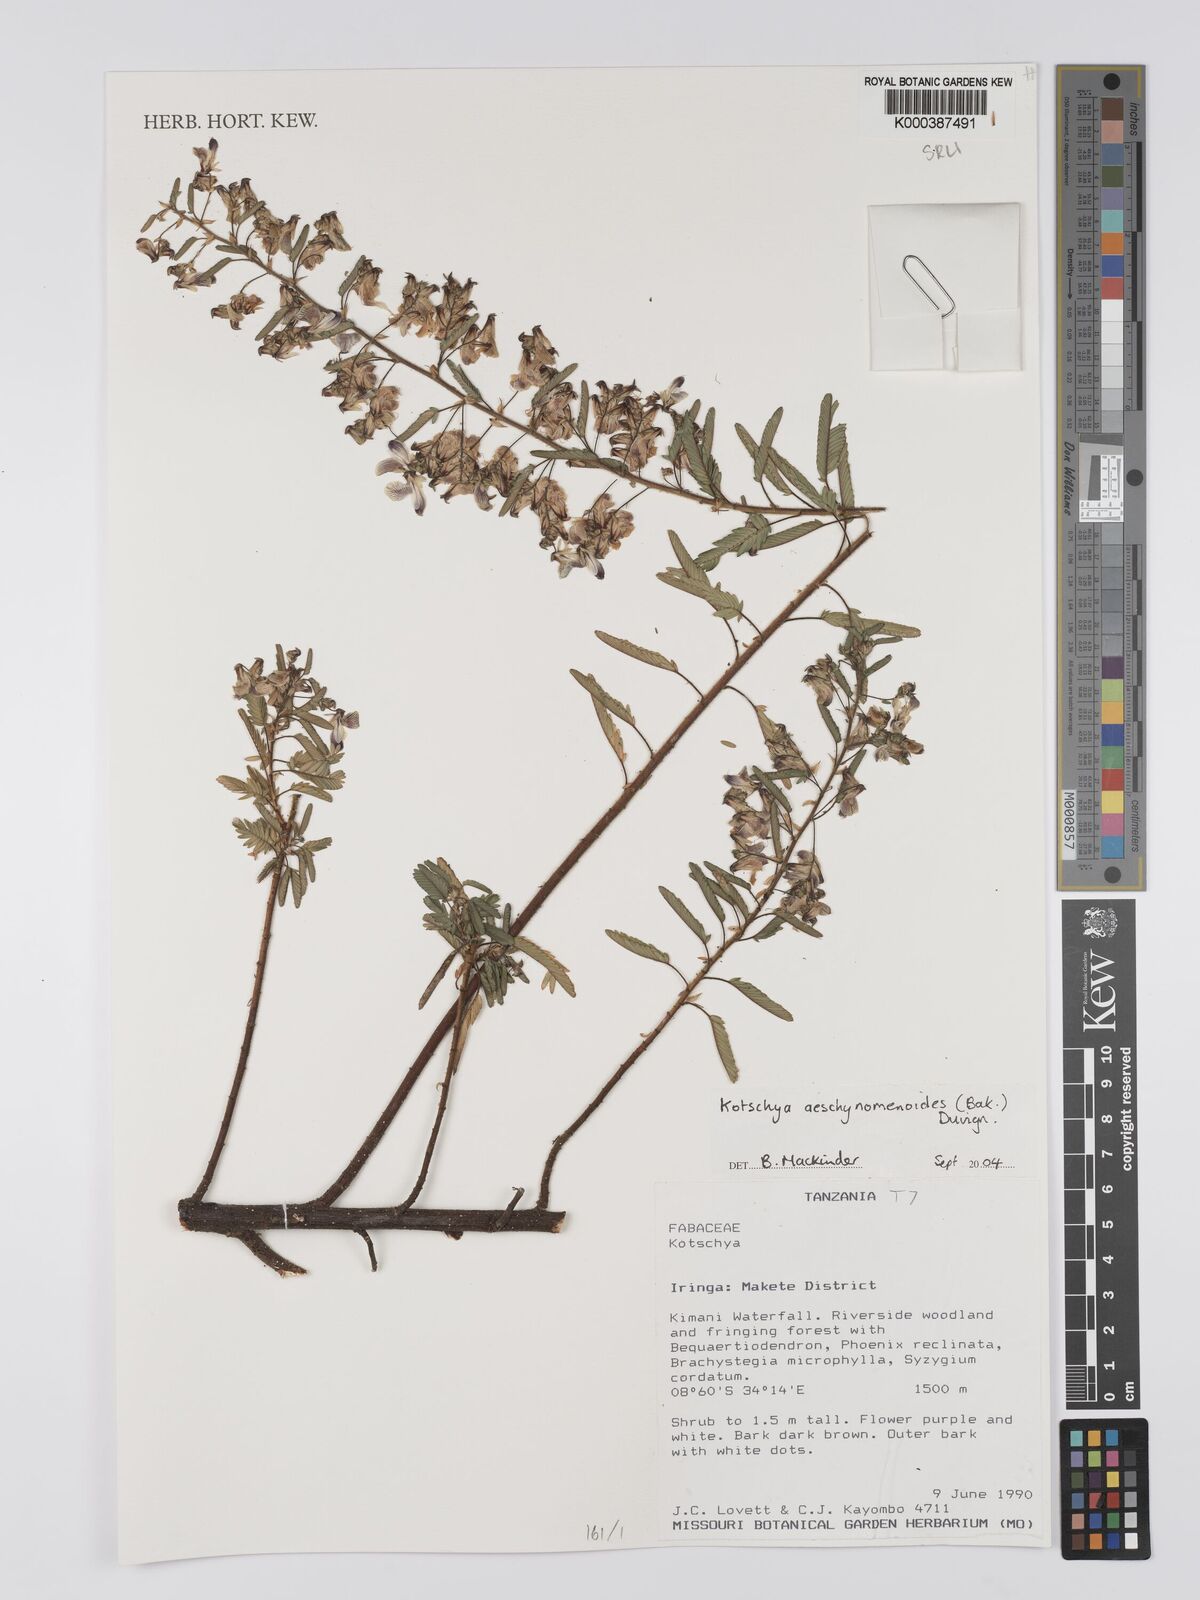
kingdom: Plantae
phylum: Tracheophyta
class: Magnoliopsida
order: Fabales
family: Fabaceae
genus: Kotschya
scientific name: Kotschya aeschynomenoides
